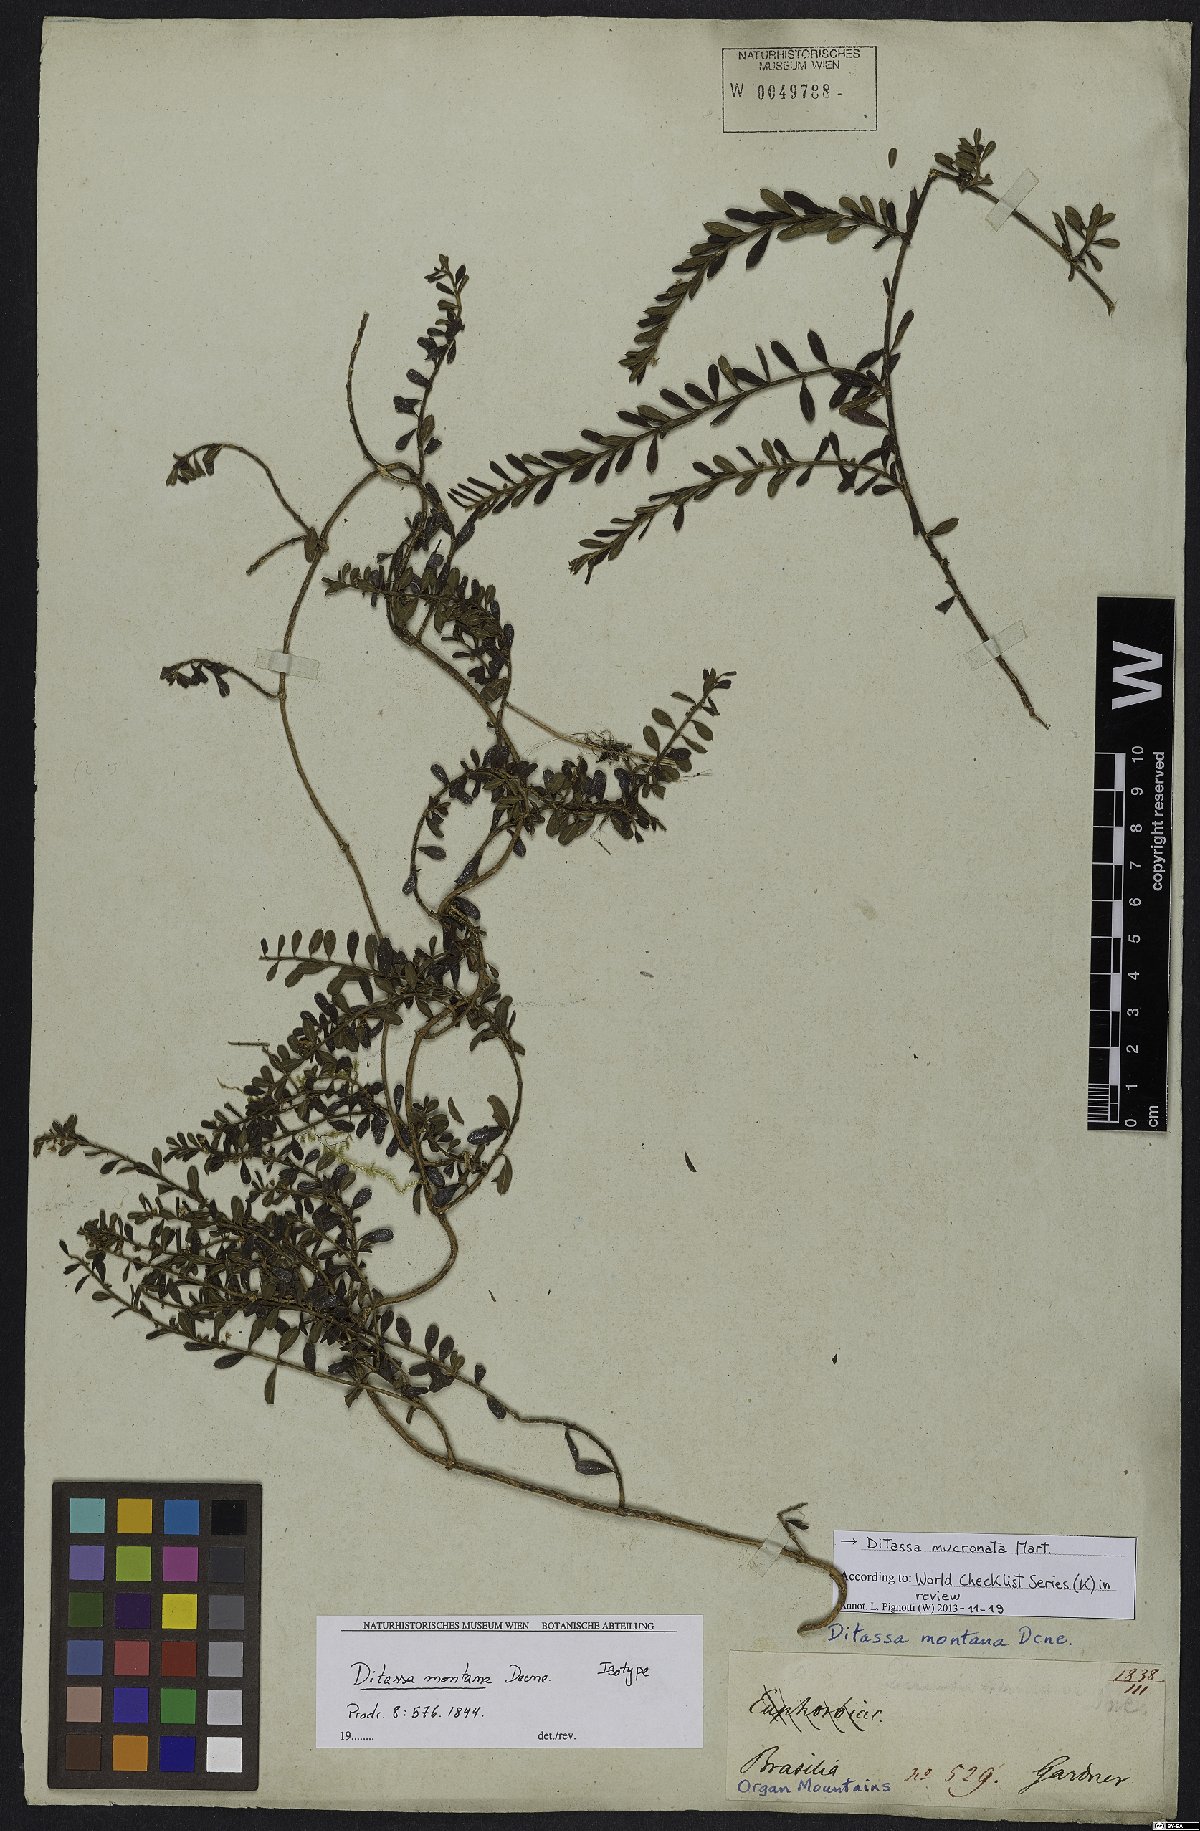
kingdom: Plantae
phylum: Tracheophyta
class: Magnoliopsida
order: Gentianales
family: Apocynaceae
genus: Ditassa
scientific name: Ditassa mucronata
